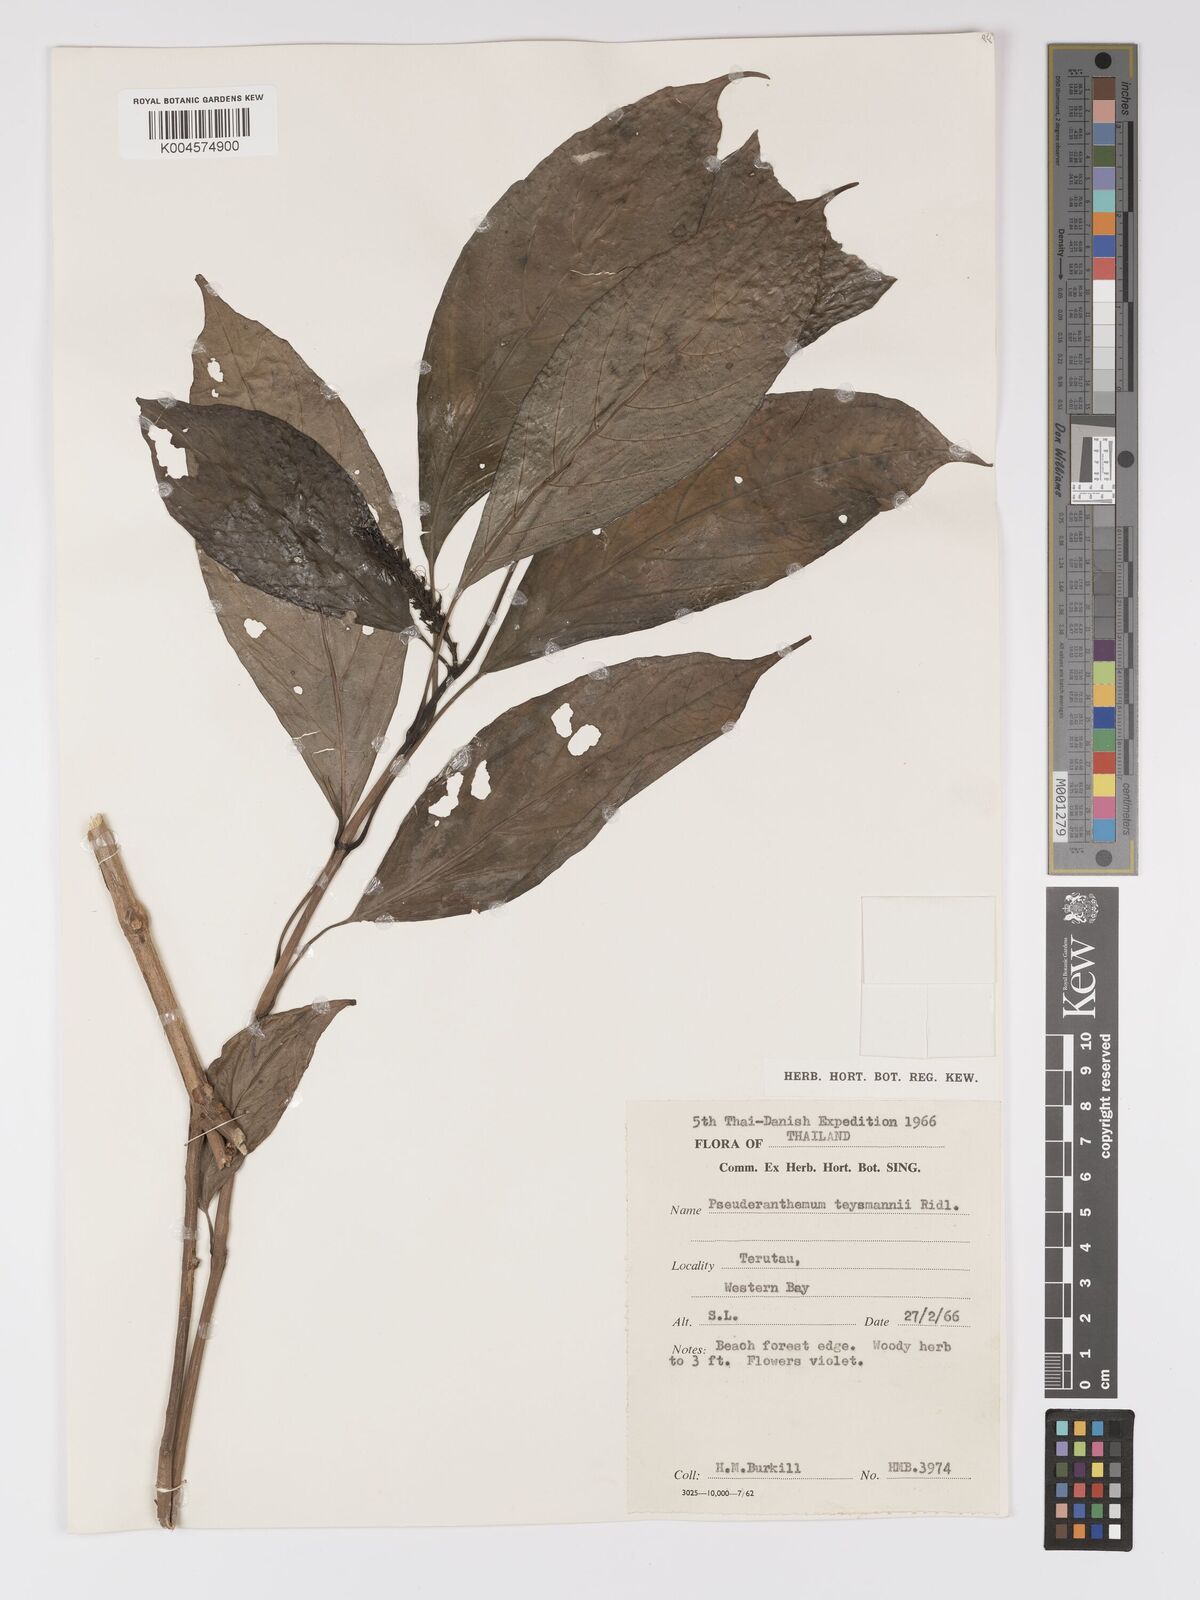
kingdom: Plantae
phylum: Tracheophyta
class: Magnoliopsida
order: Lamiales
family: Acanthaceae
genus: Pseuderanthemum
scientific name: Pseuderanthemum teijsmannii
